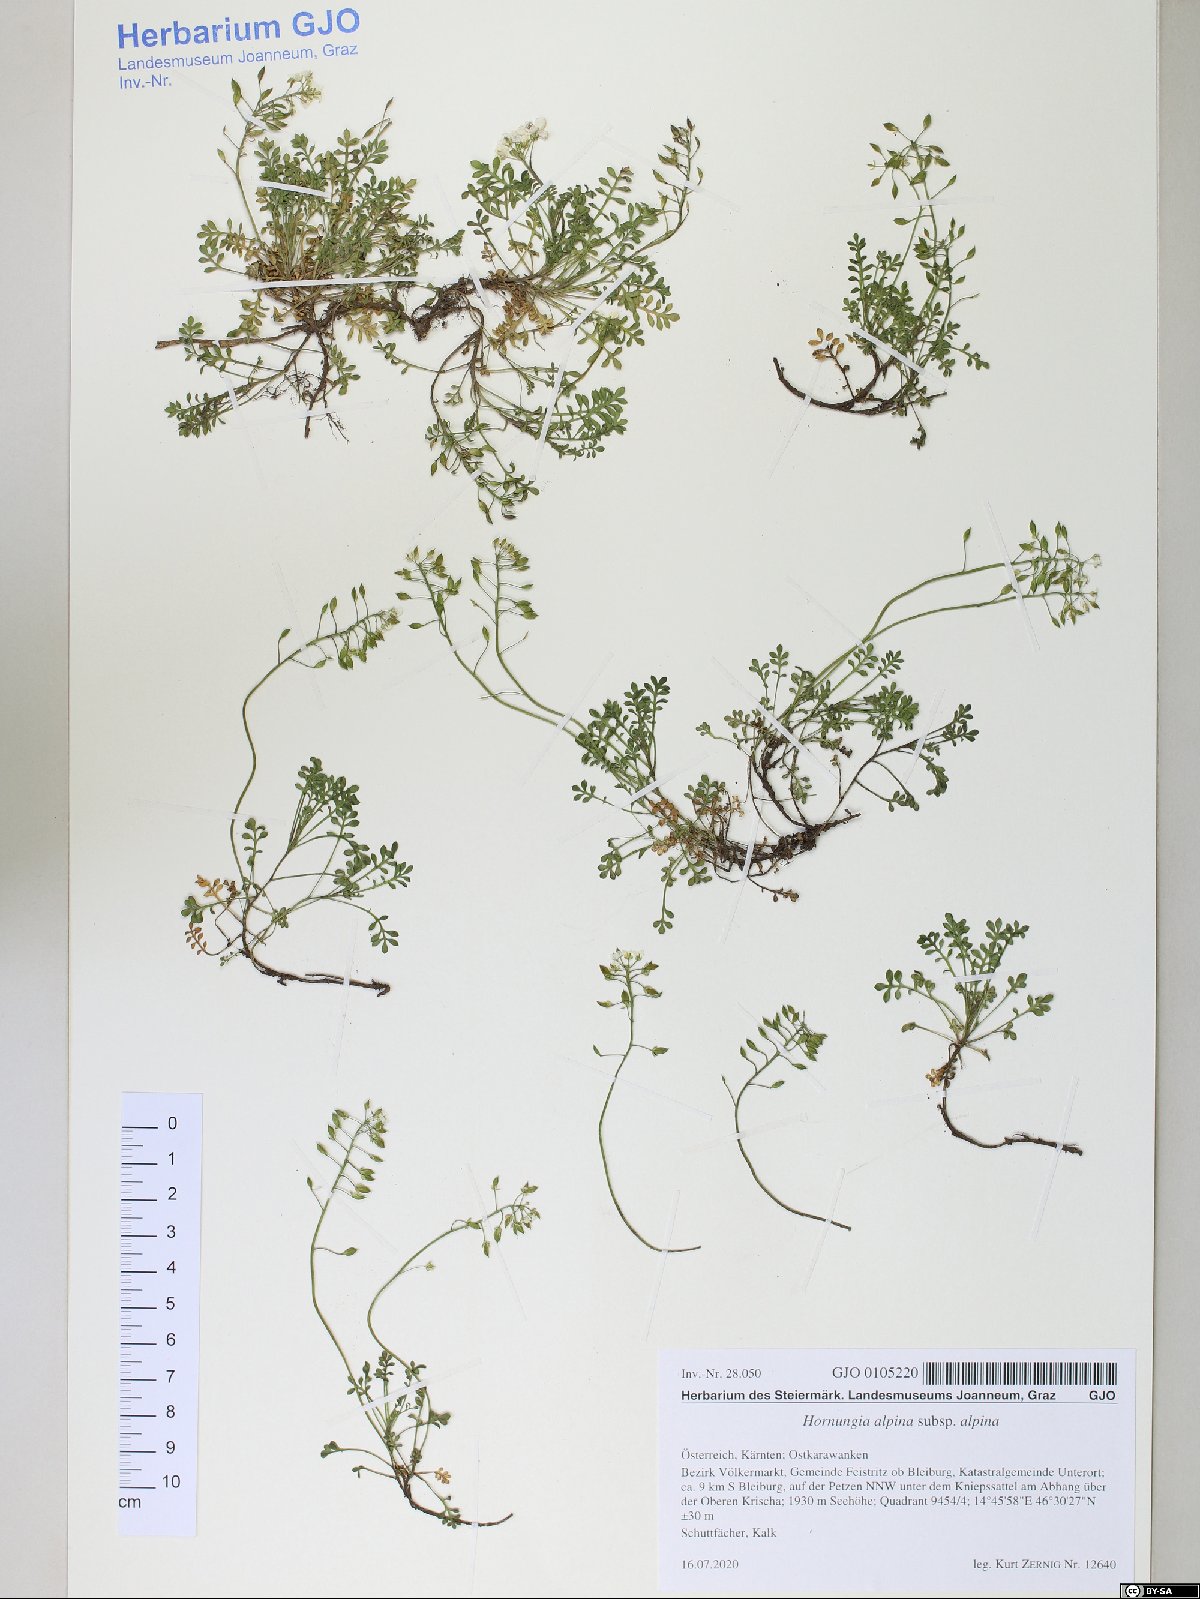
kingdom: Plantae
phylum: Tracheophyta
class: Magnoliopsida
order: Brassicales
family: Brassicaceae
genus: Hornungia
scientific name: Hornungia alpina
